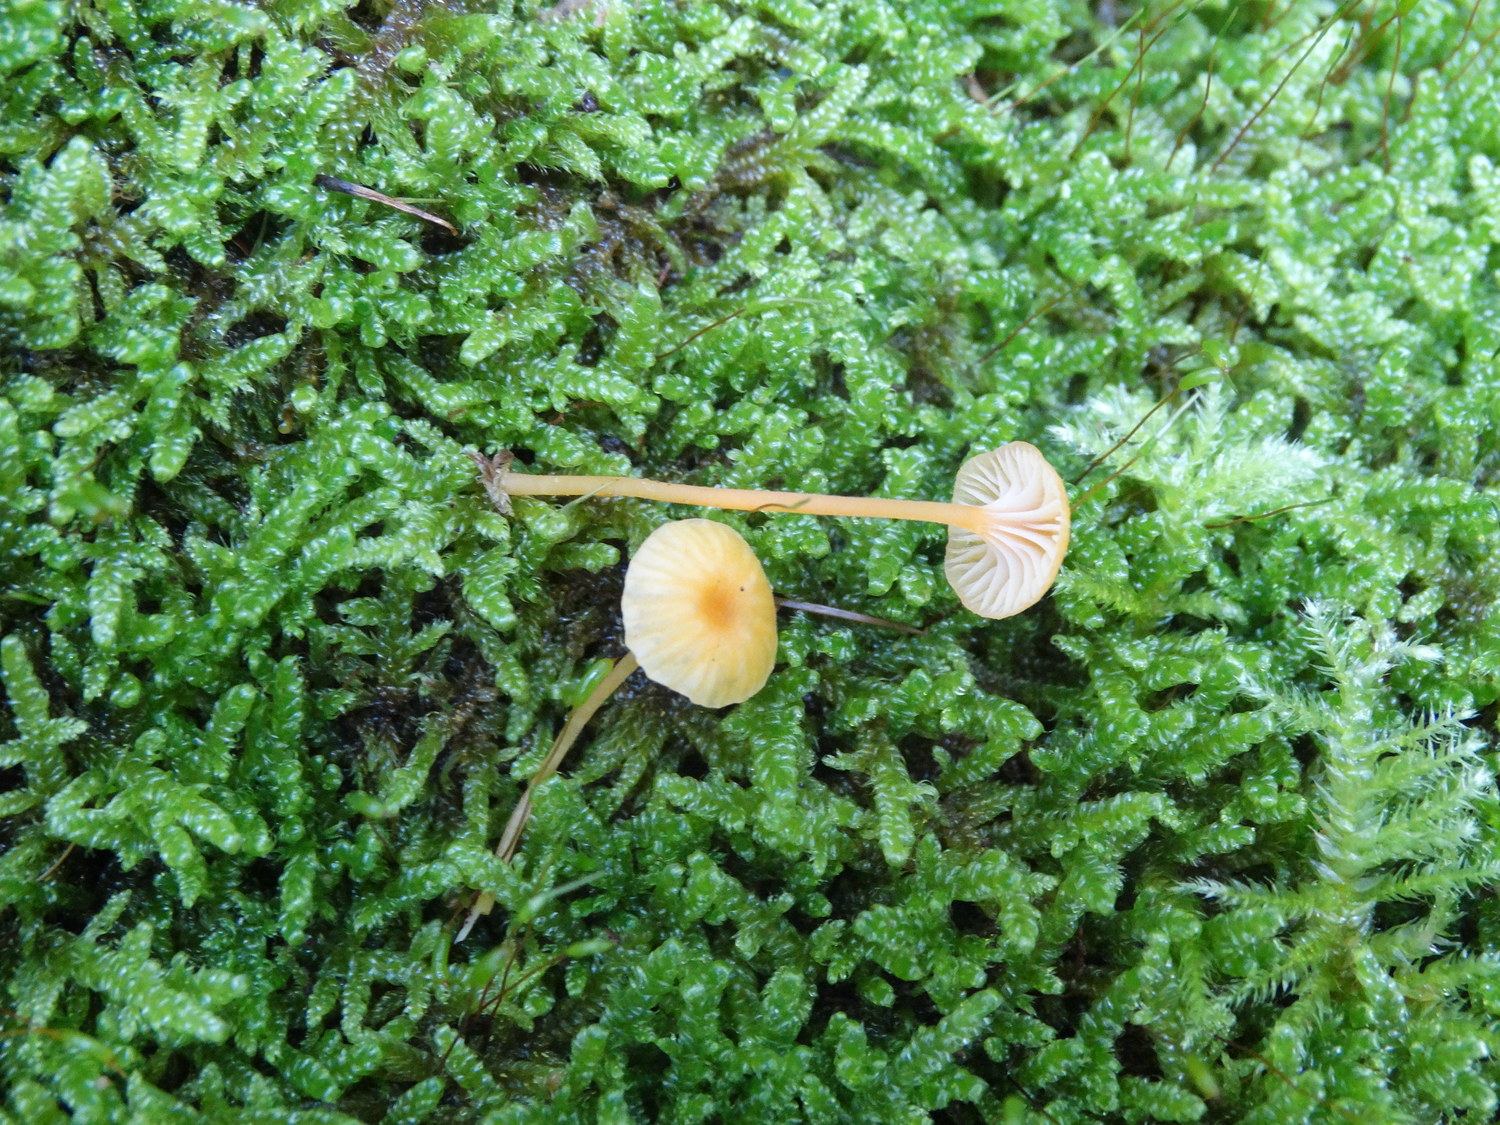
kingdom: Fungi
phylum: Basidiomycota
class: Agaricomycetes
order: Hymenochaetales
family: Rickenellaceae
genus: Rickenella
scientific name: Rickenella fibula
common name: orange mosnavlehat
